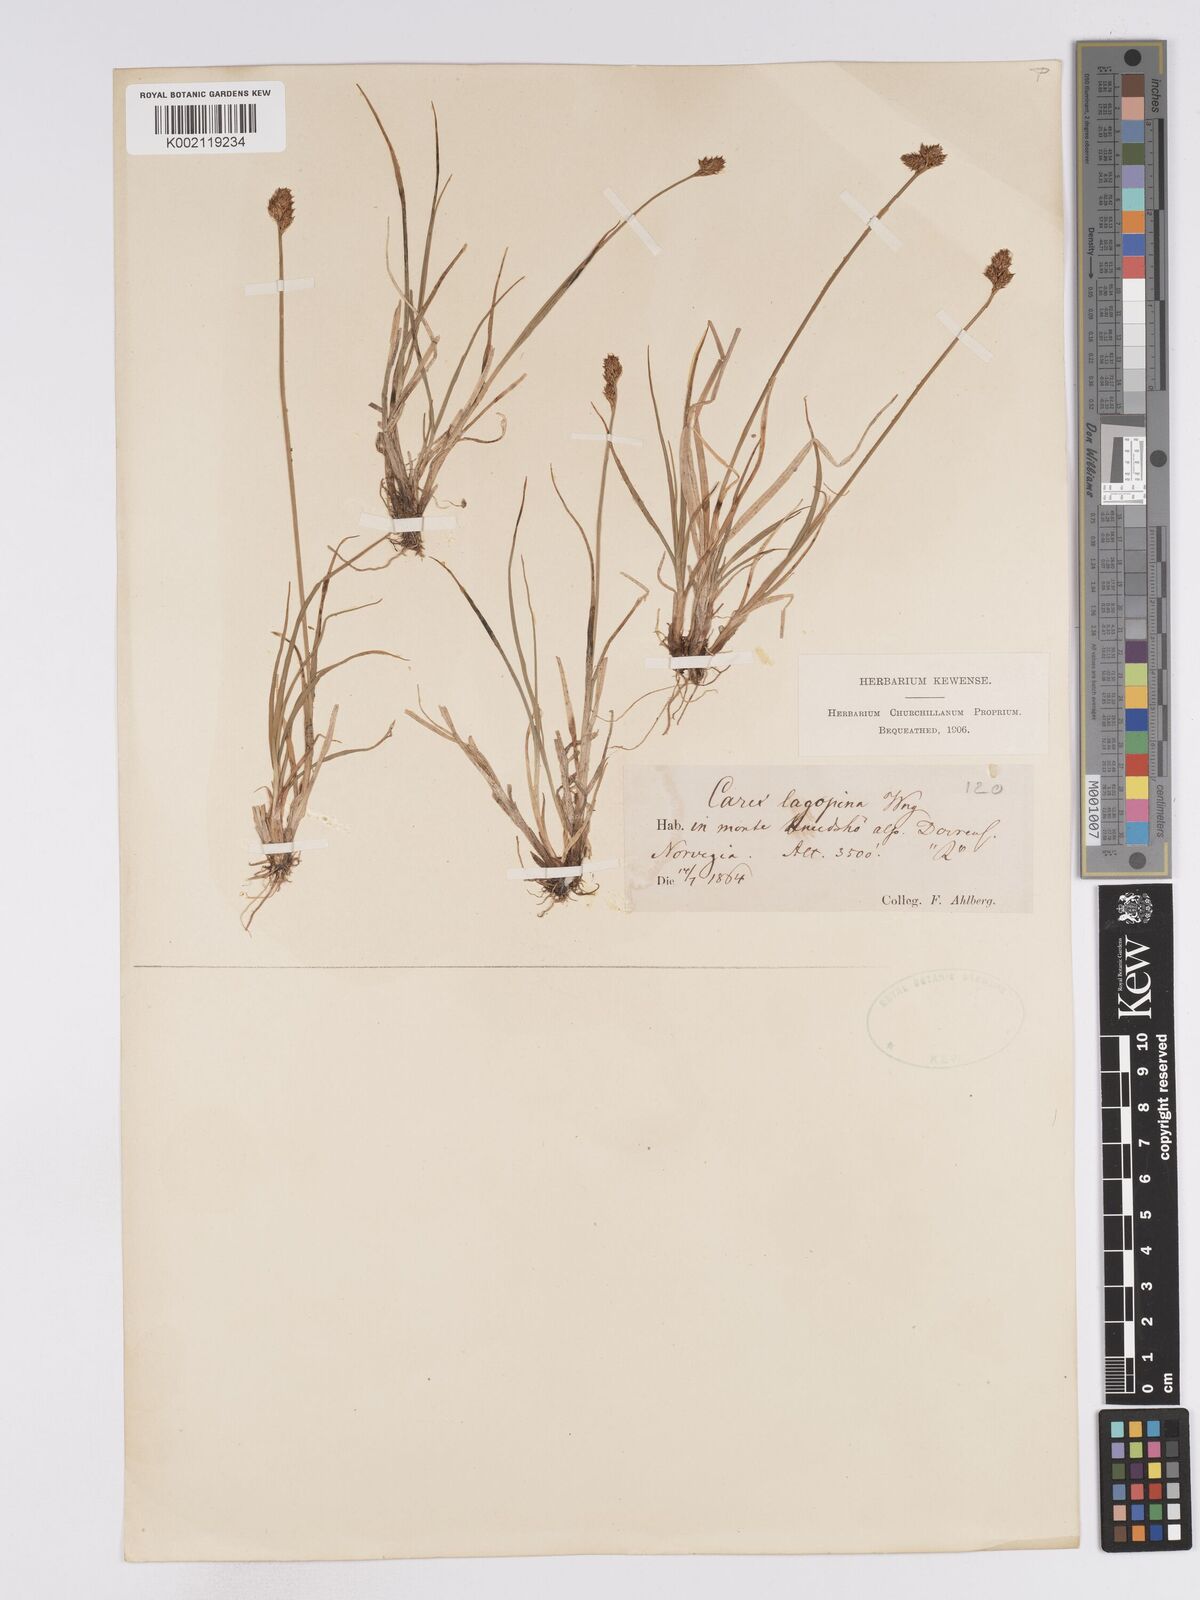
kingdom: Plantae
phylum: Tracheophyta
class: Liliopsida
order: Poales
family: Cyperaceae
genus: Carex
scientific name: Carex lachenalii
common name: Hare's-foot sedge
